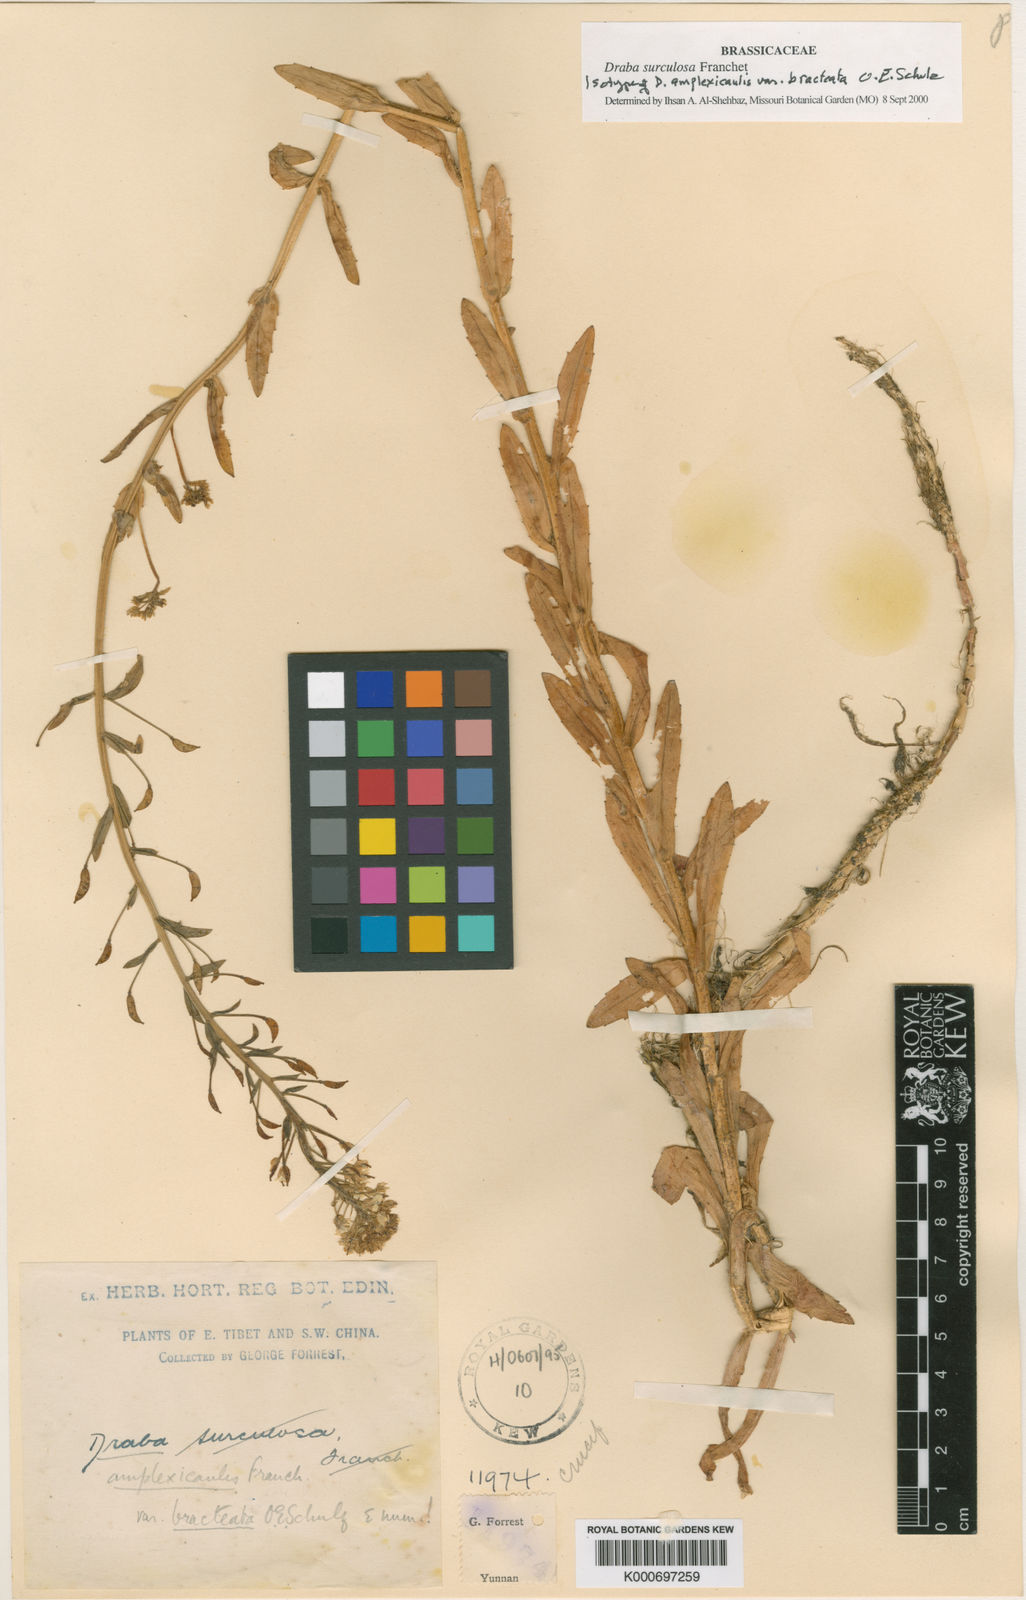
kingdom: Plantae
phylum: Tracheophyta
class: Magnoliopsida
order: Brassicales
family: Brassicaceae
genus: Draba
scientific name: Draba amplexicaulis
